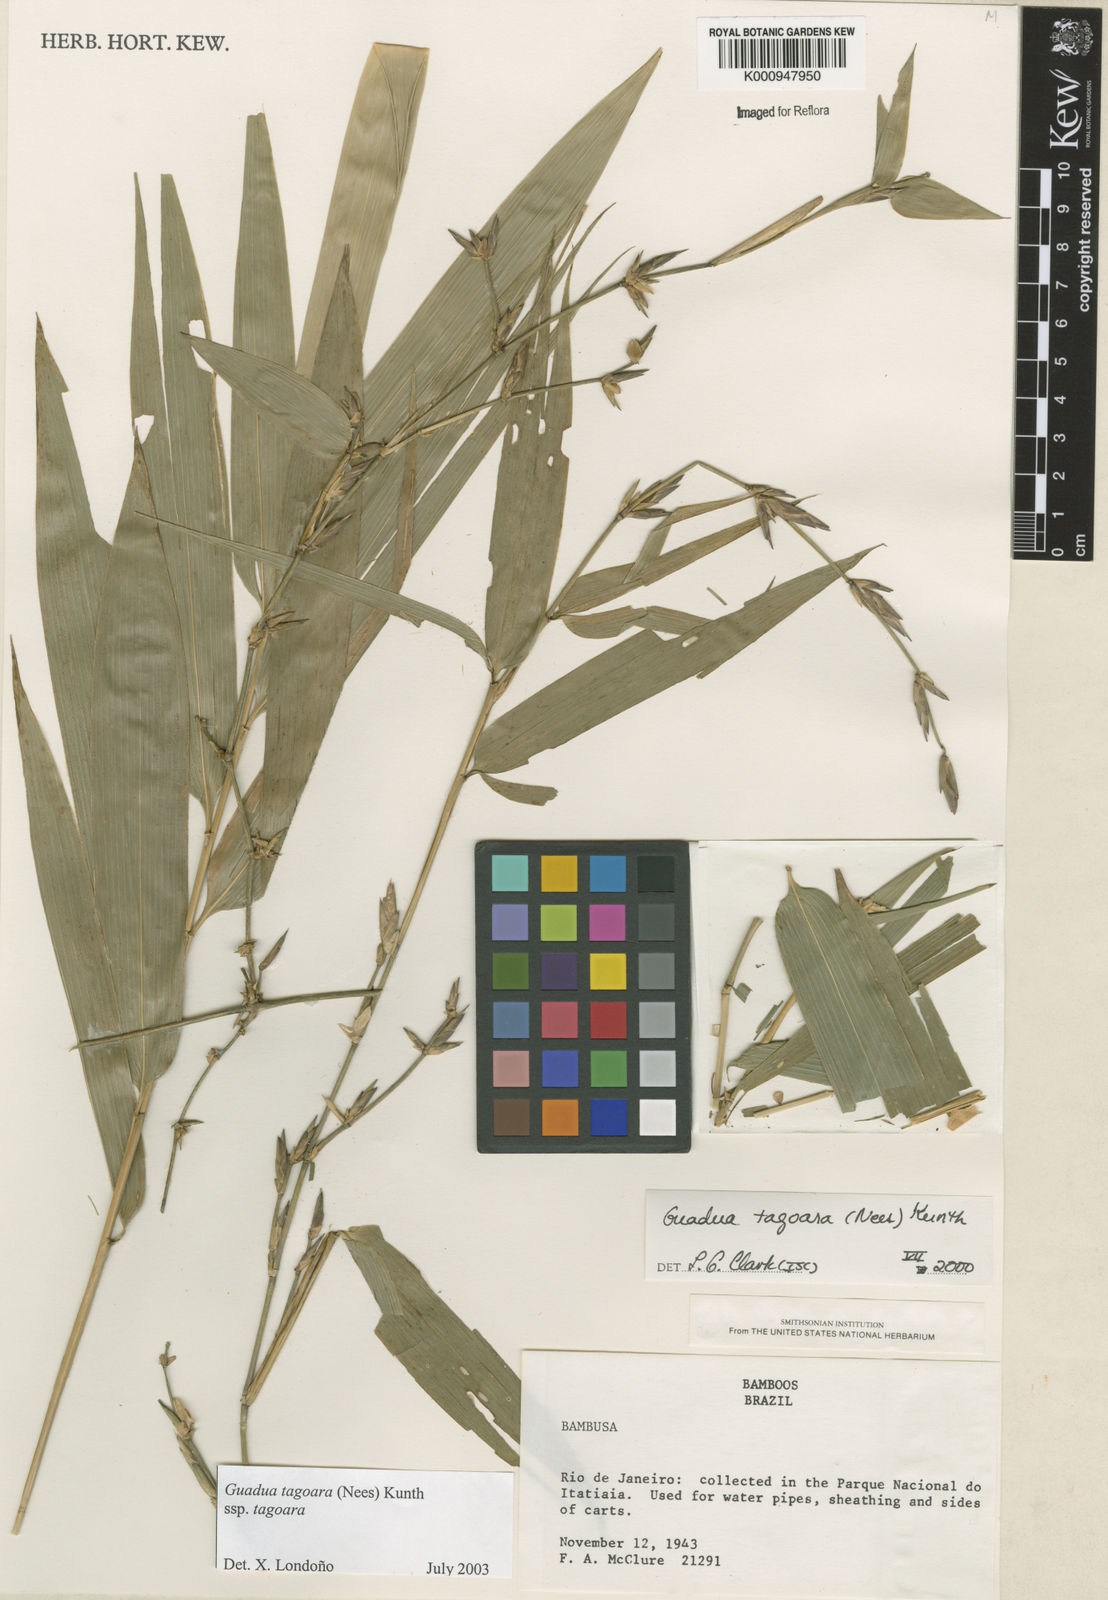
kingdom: Plantae
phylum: Tracheophyta
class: Liliopsida
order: Poales
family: Poaceae
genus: Guadua
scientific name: Guadua tagoara
